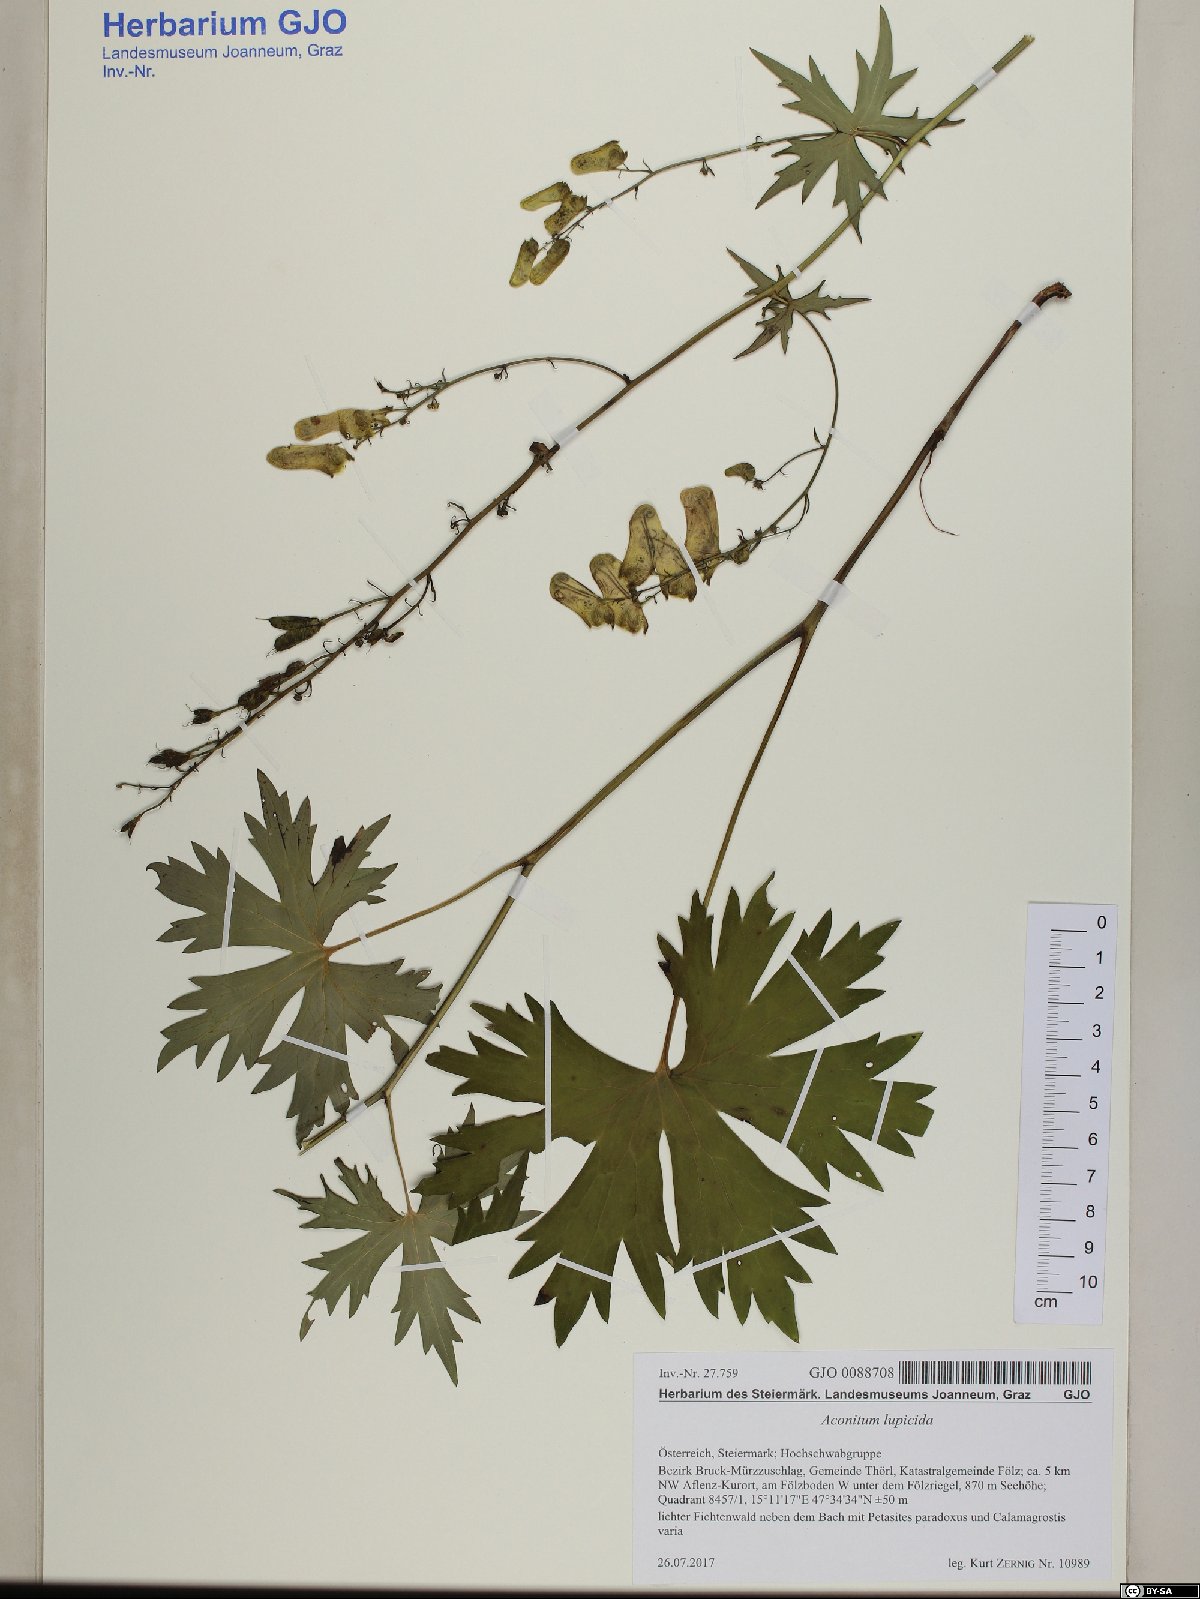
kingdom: Plantae
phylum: Tracheophyta
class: Magnoliopsida
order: Ranunculales
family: Ranunculaceae
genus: Aconitum
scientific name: Aconitum lycoctonum
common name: Wolf's-bane
